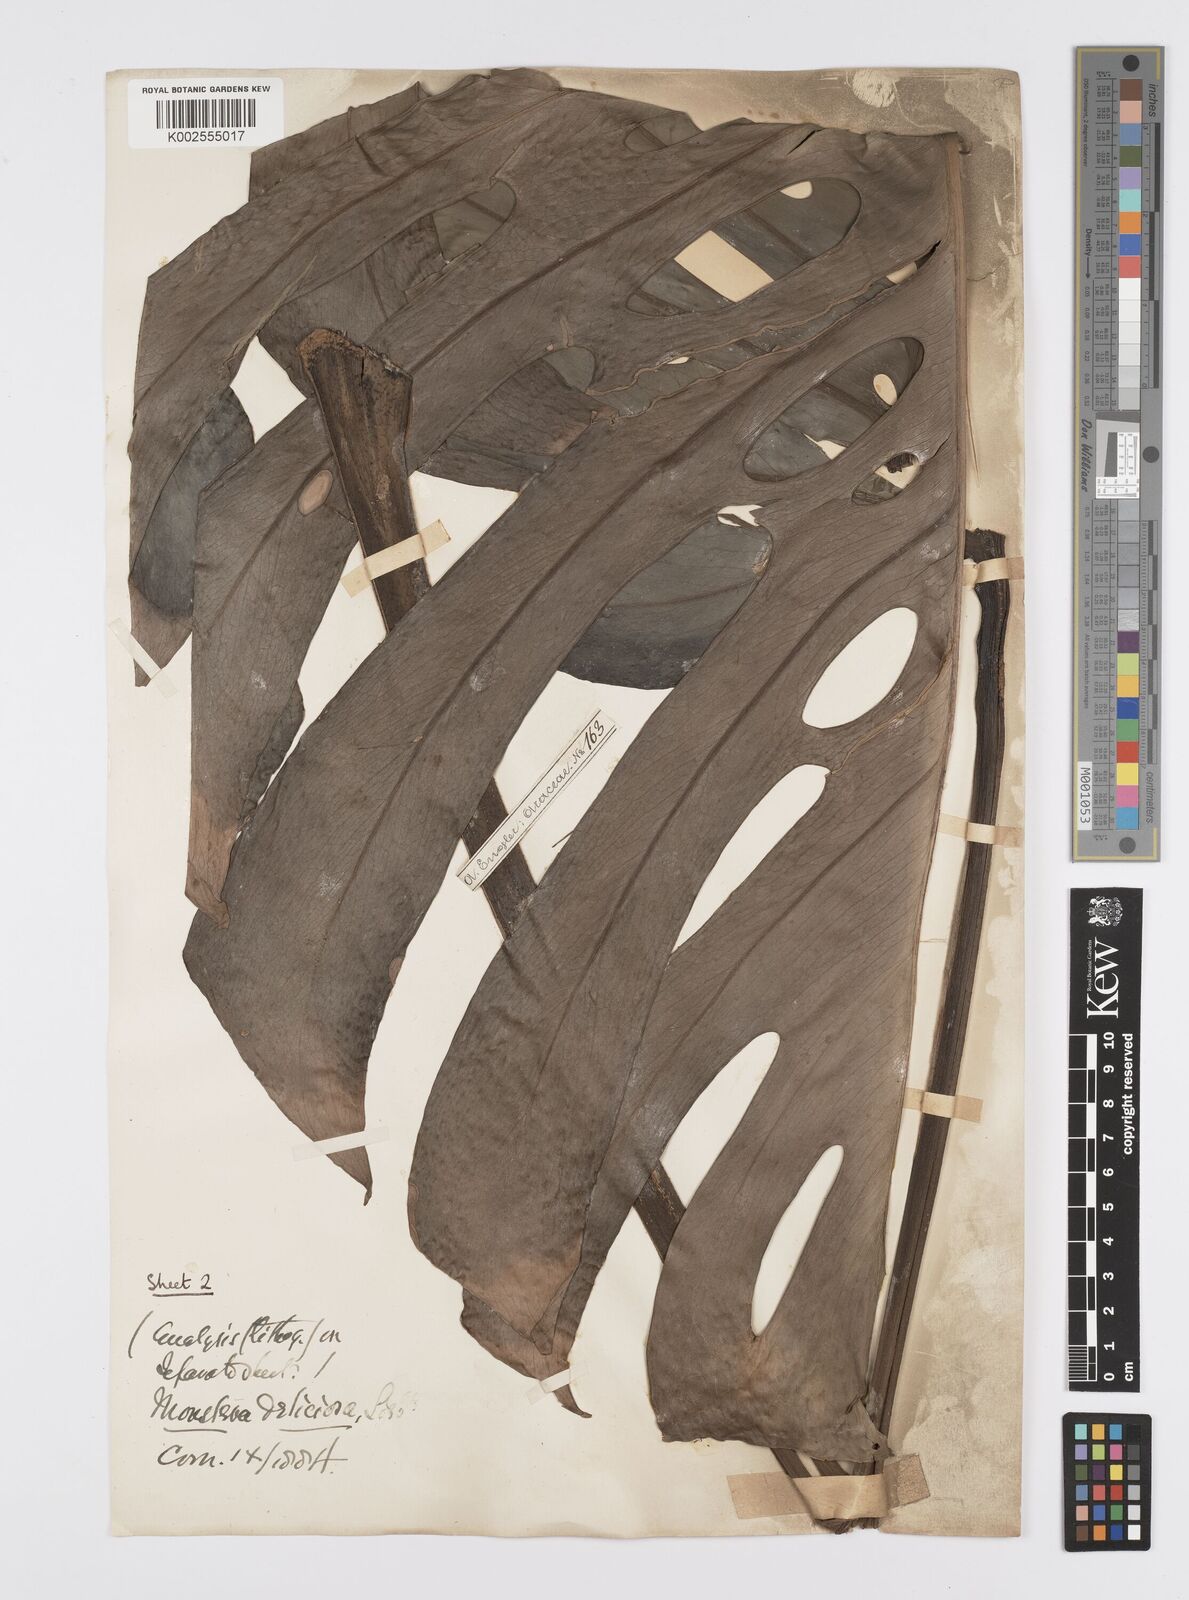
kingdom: Plantae
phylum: Tracheophyta
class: Liliopsida
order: Alismatales
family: Araceae
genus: Monstera
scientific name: Monstera deliciosa
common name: Cut-leaf-philodendron
